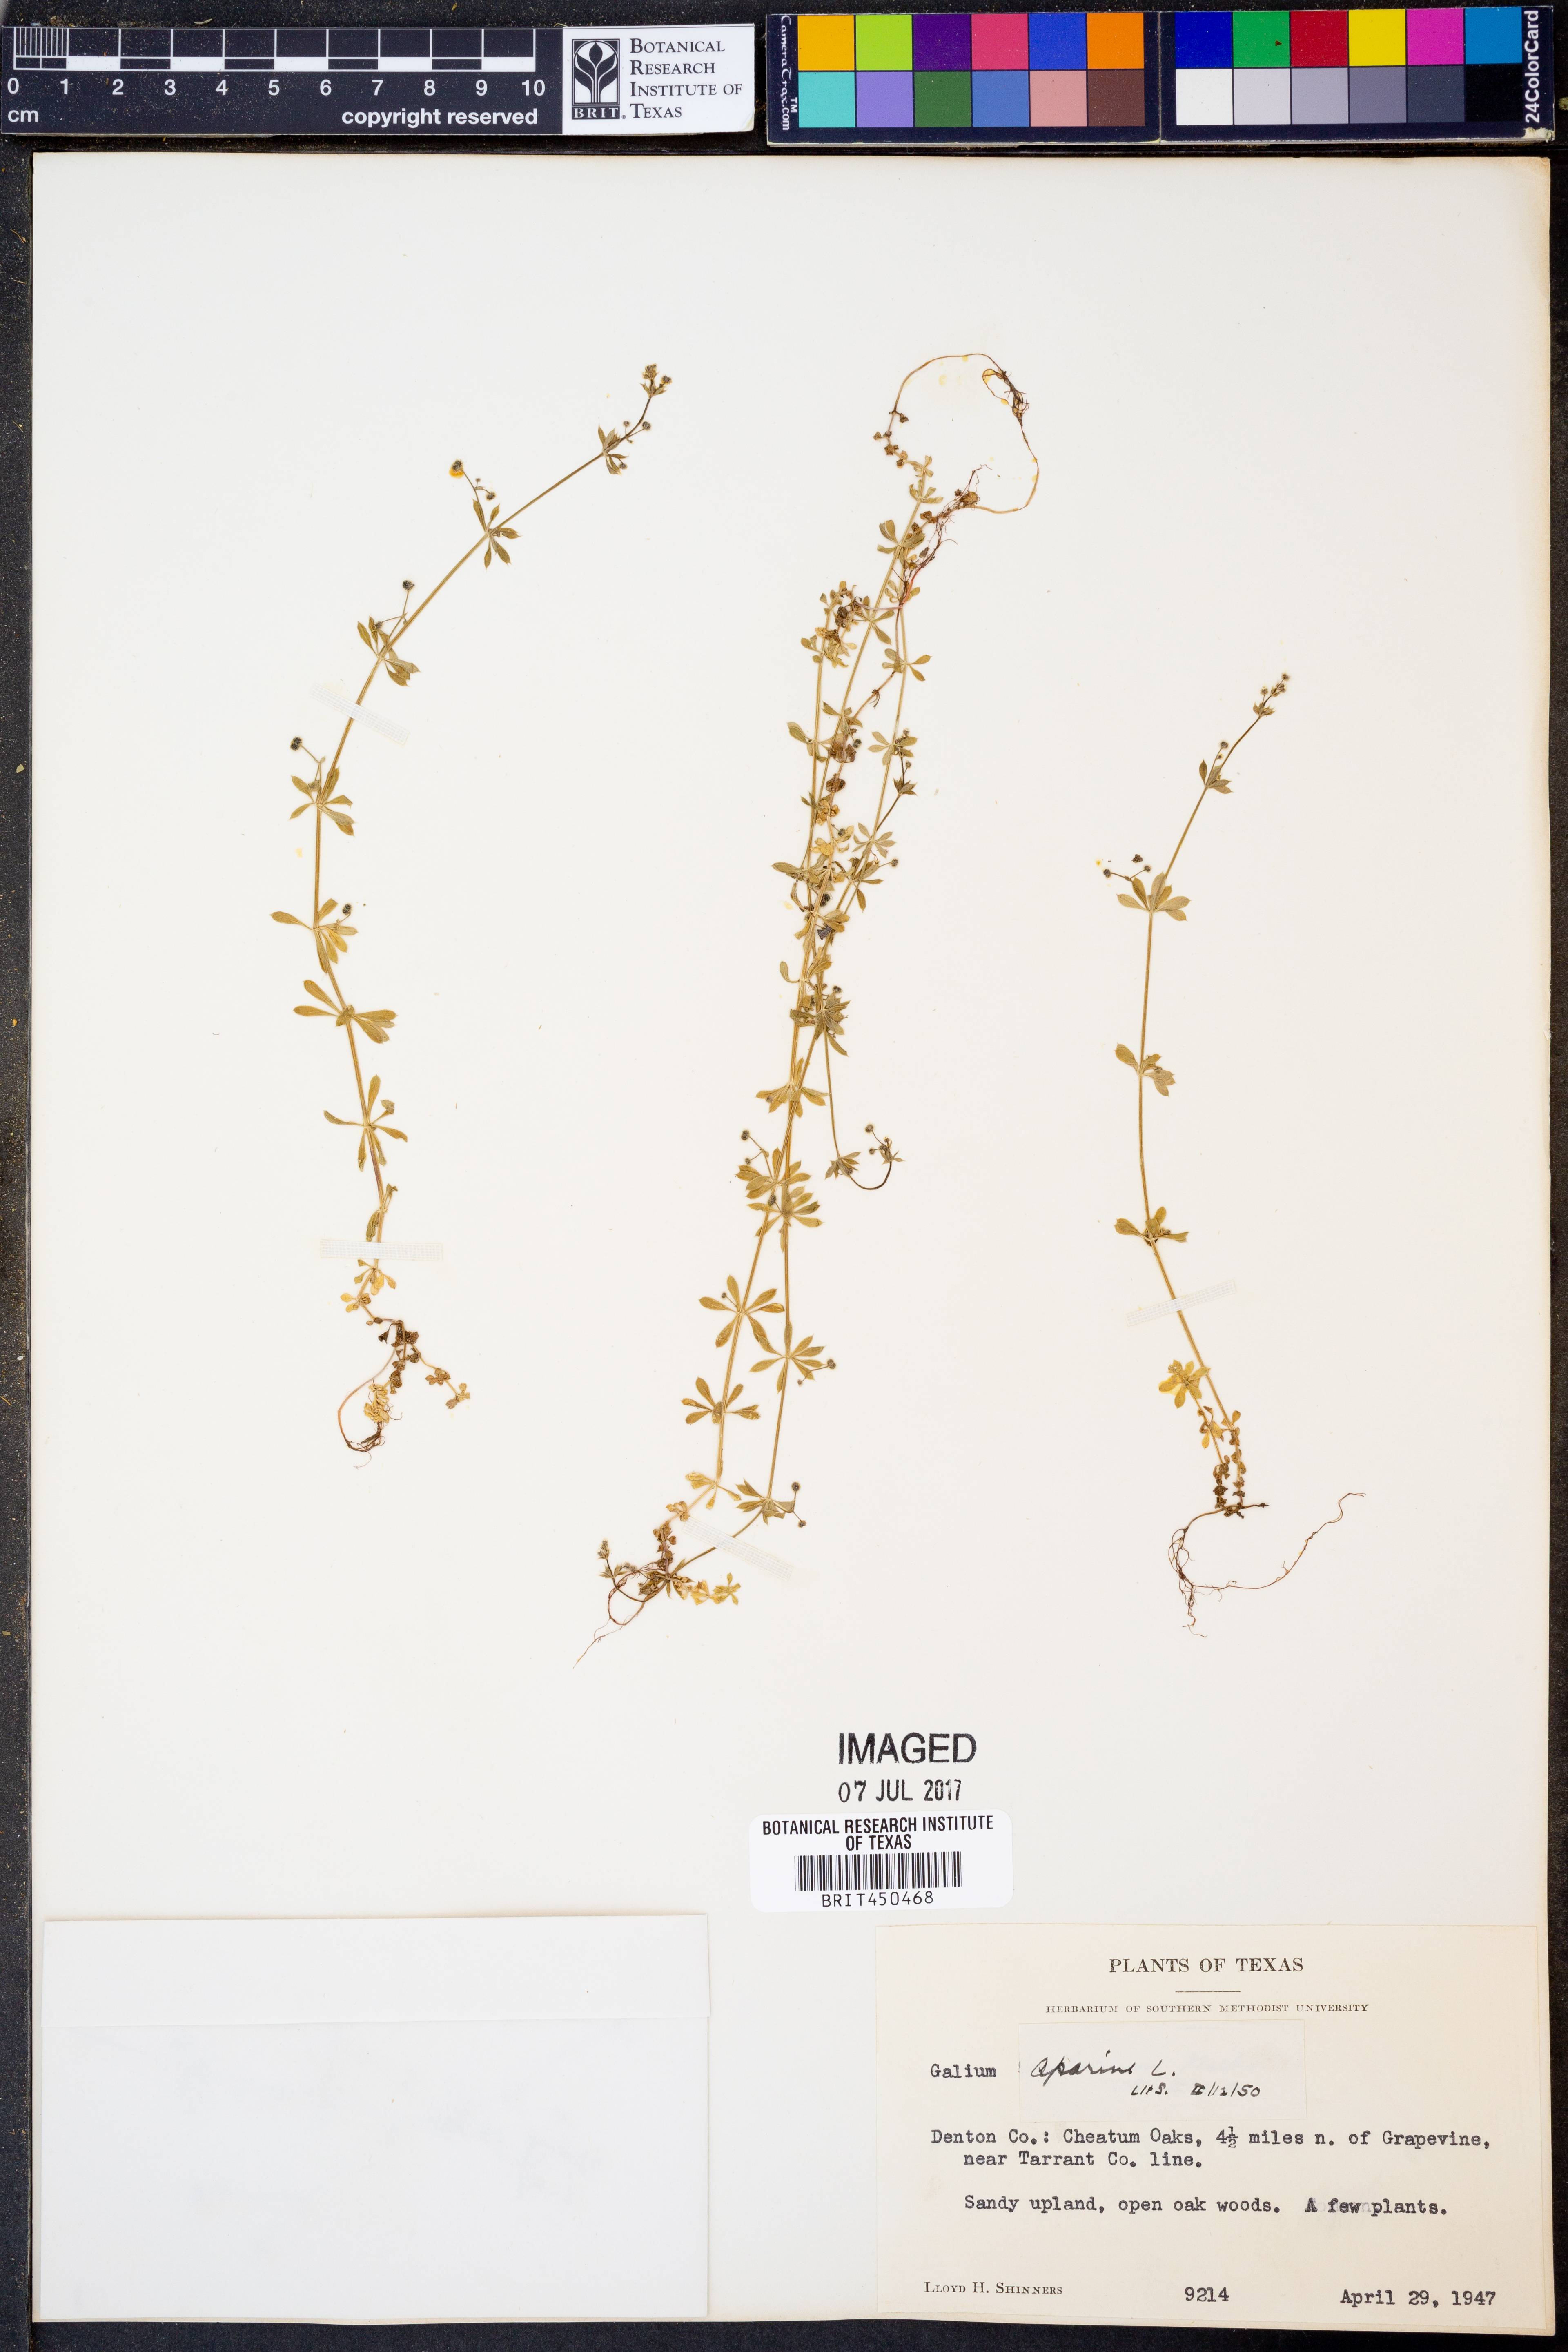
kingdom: Plantae
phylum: Tracheophyta
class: Magnoliopsida
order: Gentianales
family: Rubiaceae
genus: Galium
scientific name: Galium aparine
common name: Cleavers
